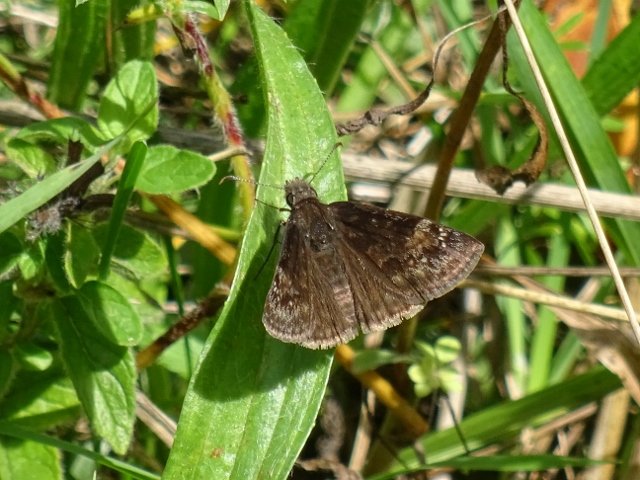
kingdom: Animalia
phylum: Arthropoda
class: Insecta
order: Lepidoptera
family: Hesperiidae
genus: Gesta
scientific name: Gesta
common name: Wild Indigo Duskywing
